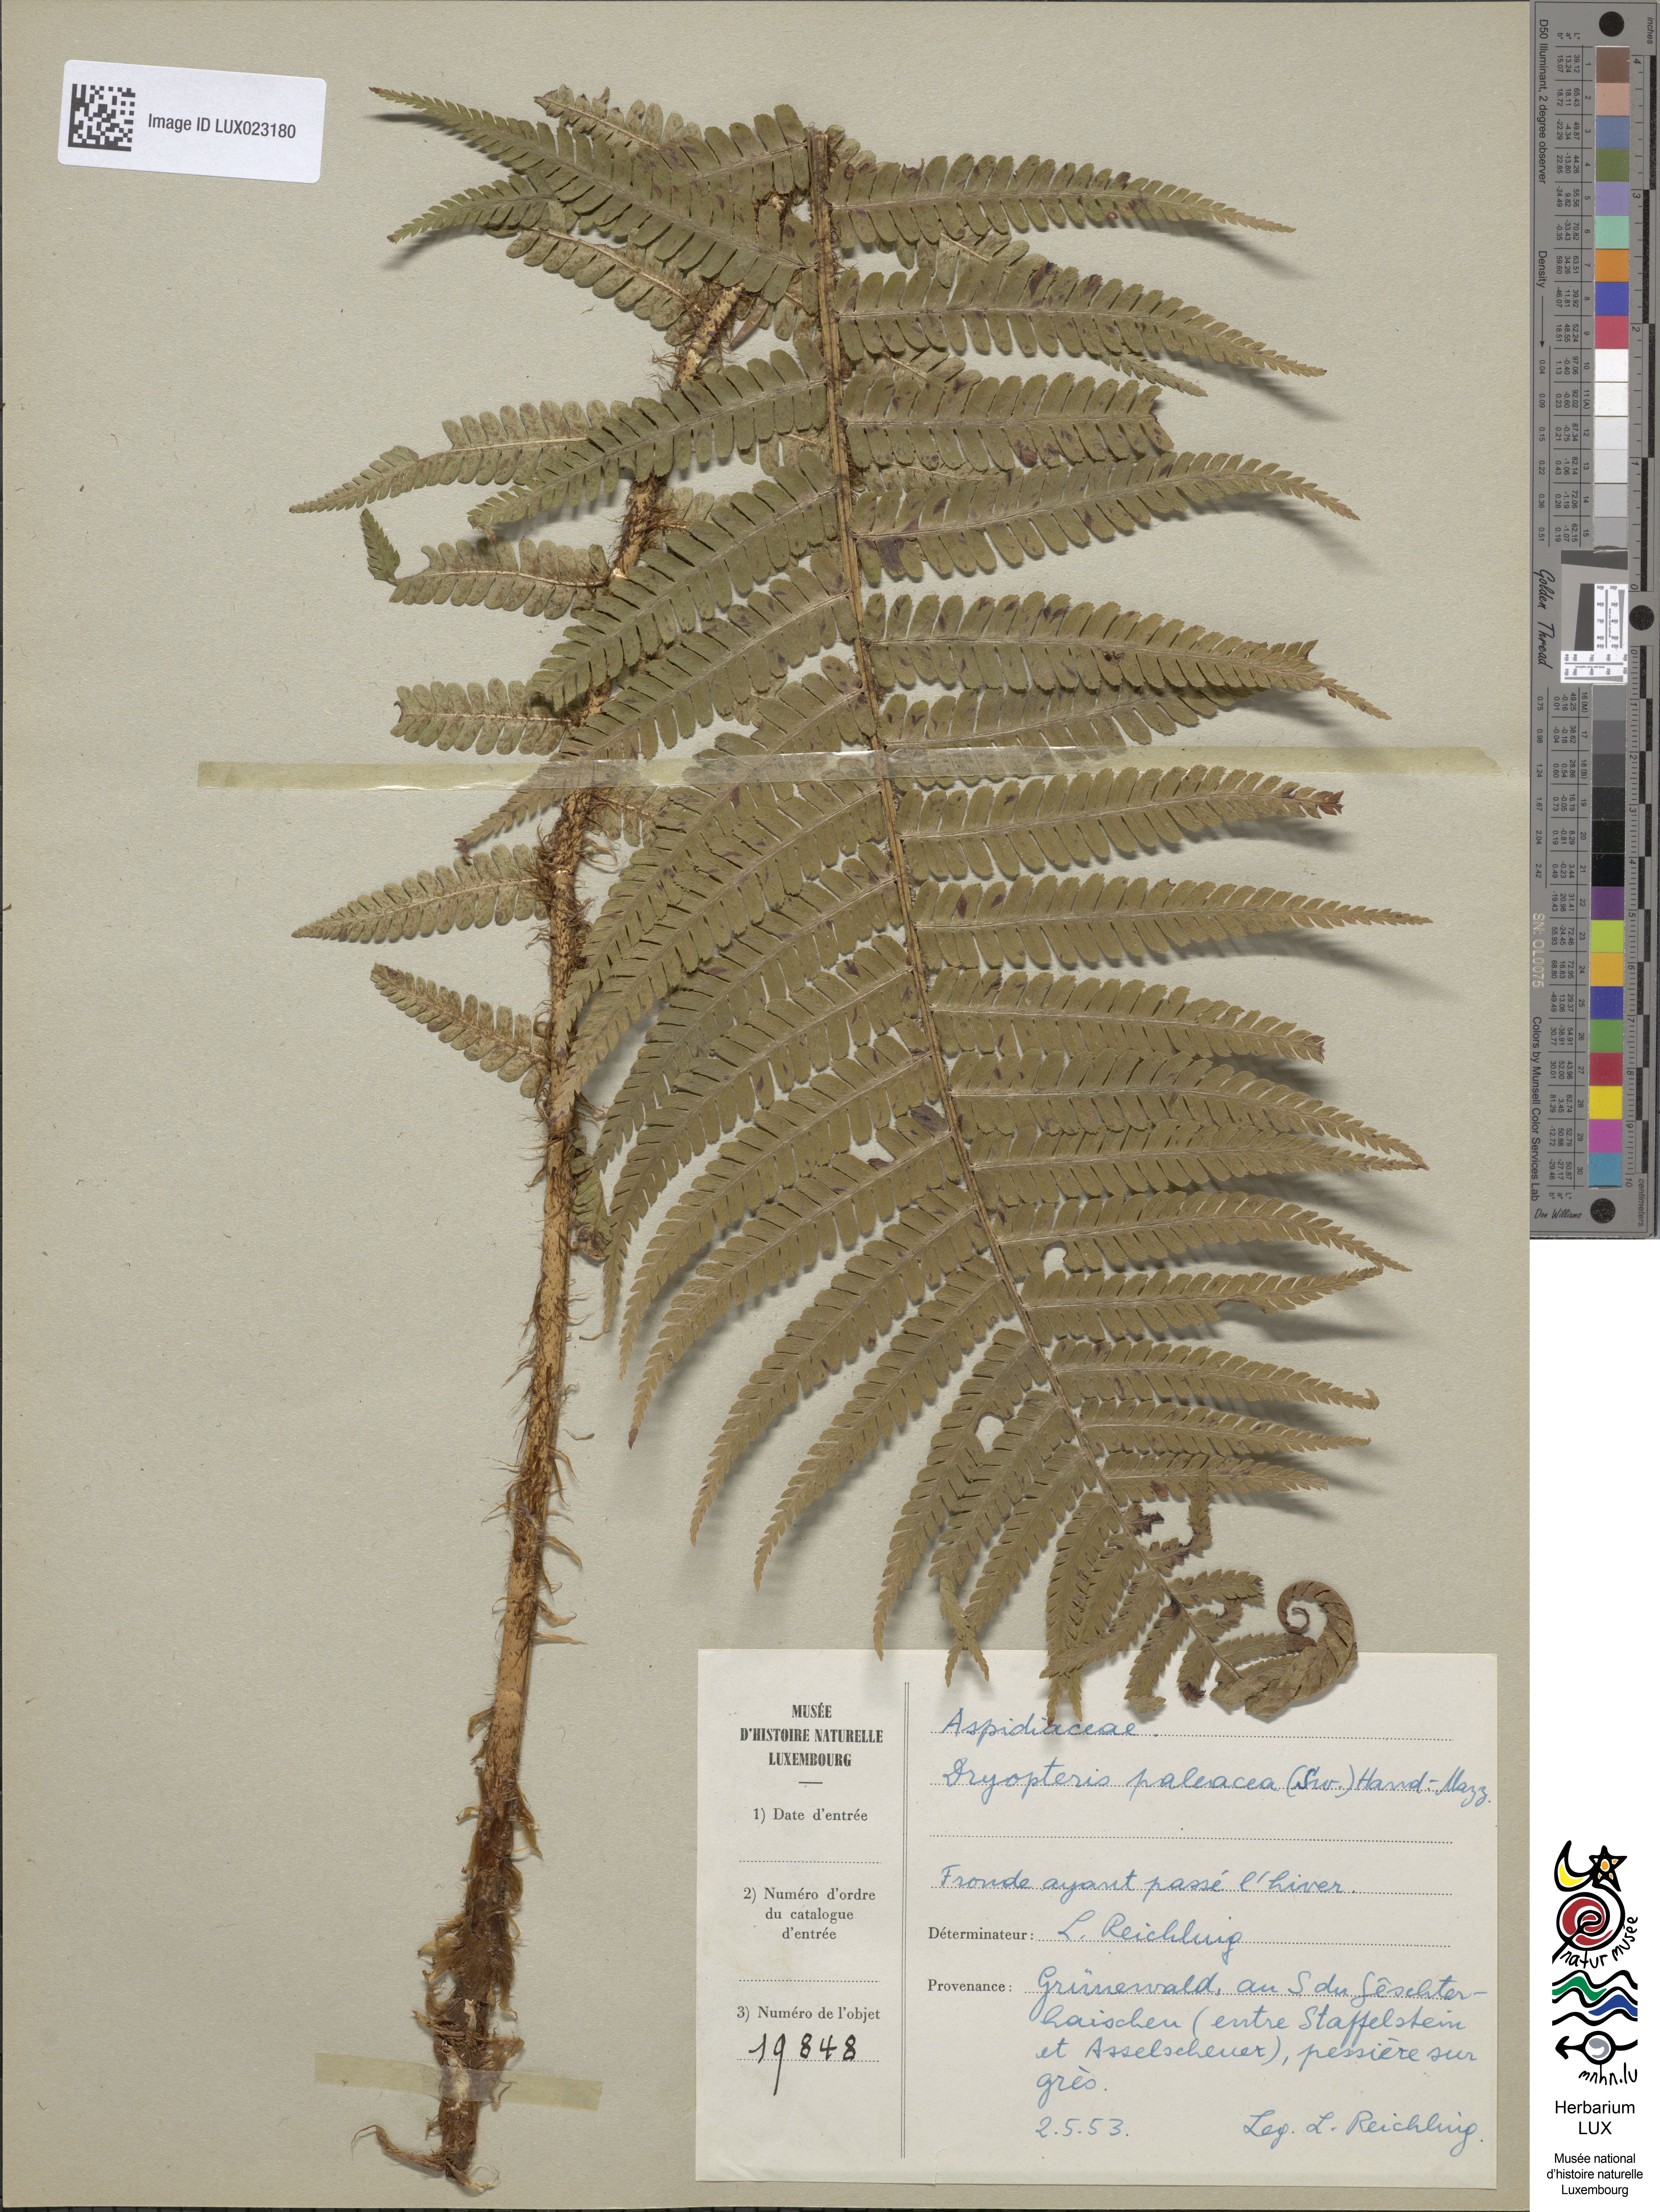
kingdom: Plantae
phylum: Tracheophyta
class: Polypodiopsida
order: Polypodiales
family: Dryopteridaceae
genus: Dryopteris
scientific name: Dryopteris borreri
